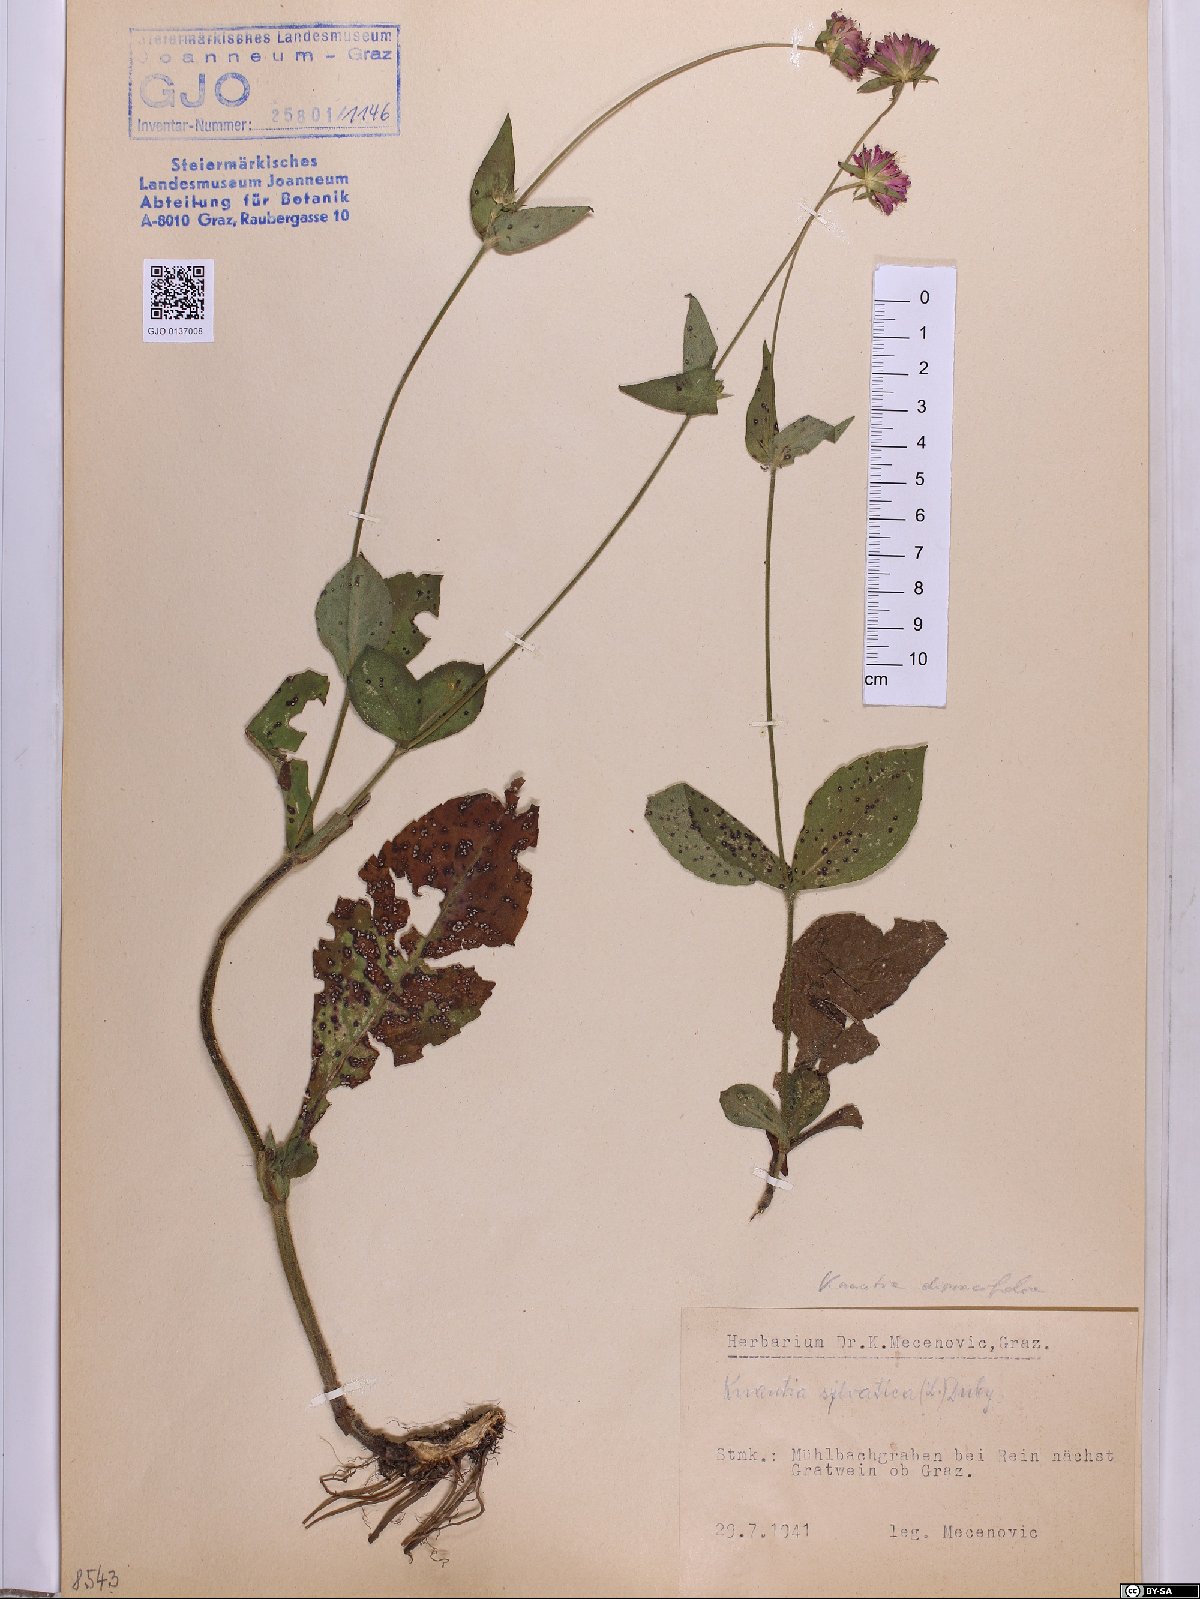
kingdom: Plantae
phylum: Tracheophyta
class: Magnoliopsida
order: Dipsacales
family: Caprifoliaceae
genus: Knautia
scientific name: Knautia drymeia
